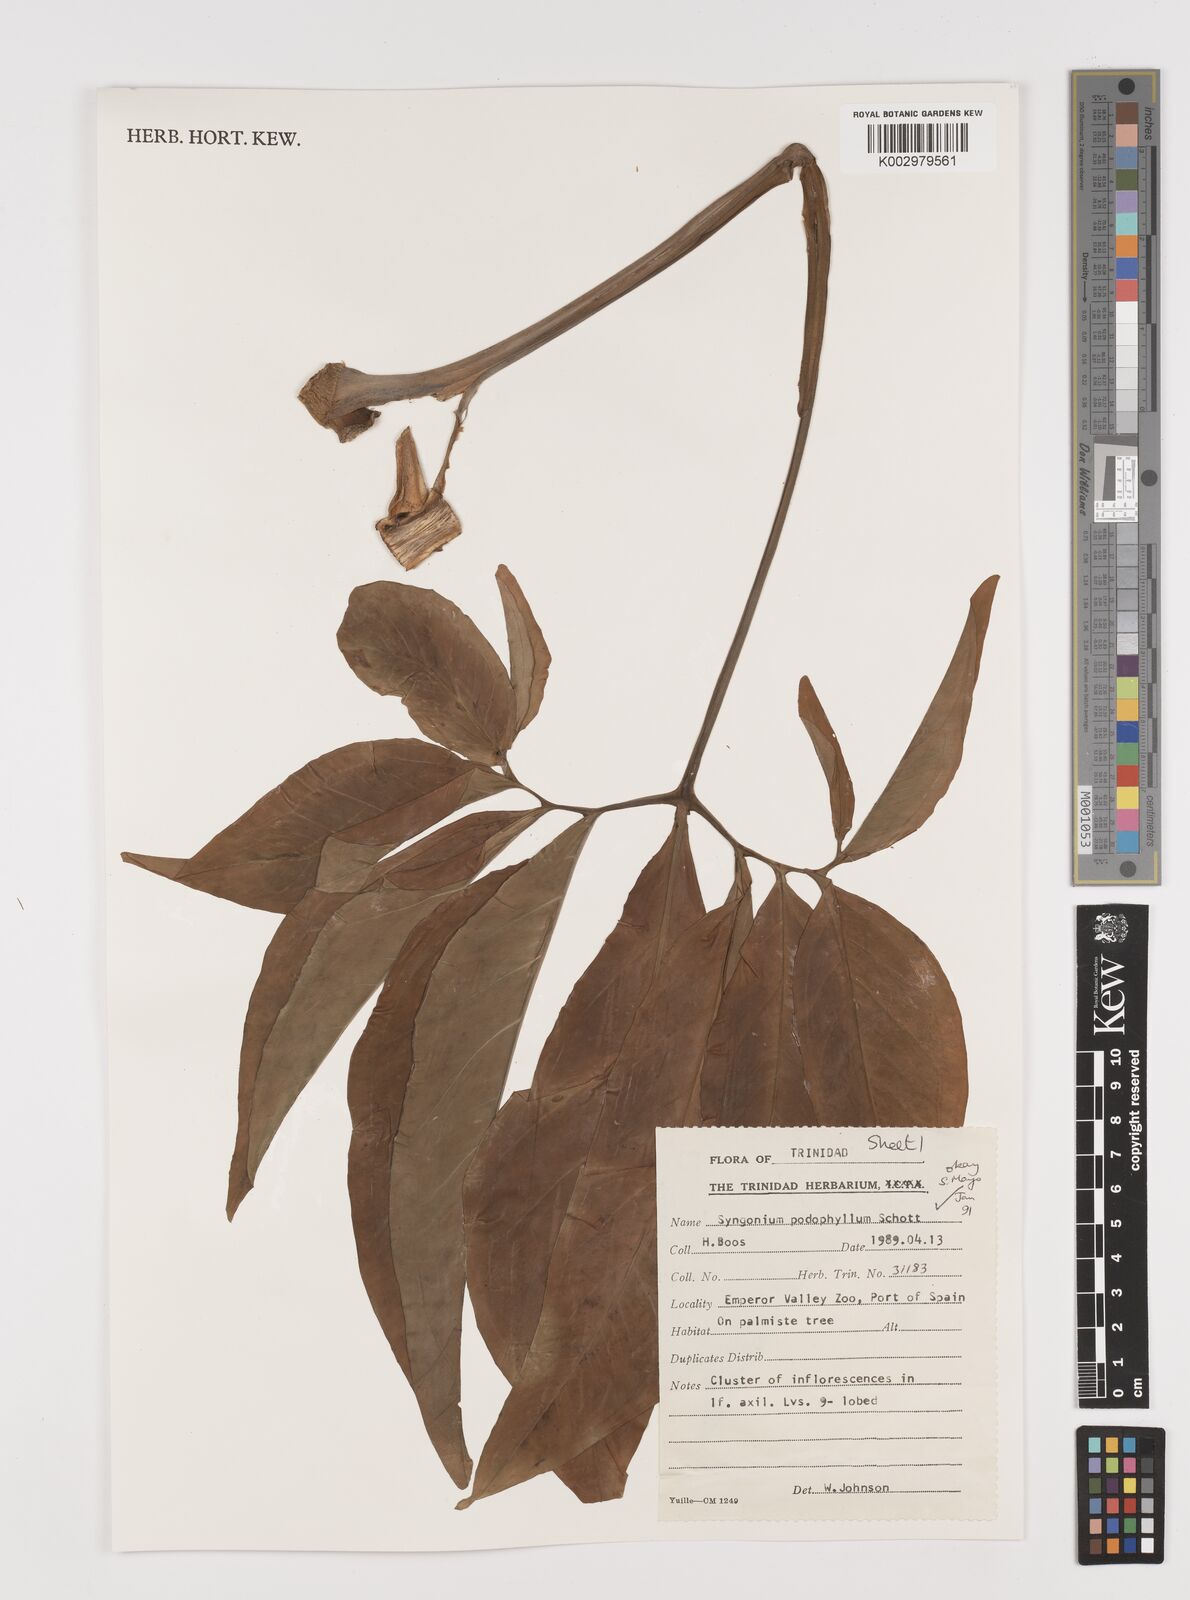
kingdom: Plantae
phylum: Tracheophyta
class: Liliopsida
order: Alismatales
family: Araceae
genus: Syngonium
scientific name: Syngonium podophyllum
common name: American evergreen
